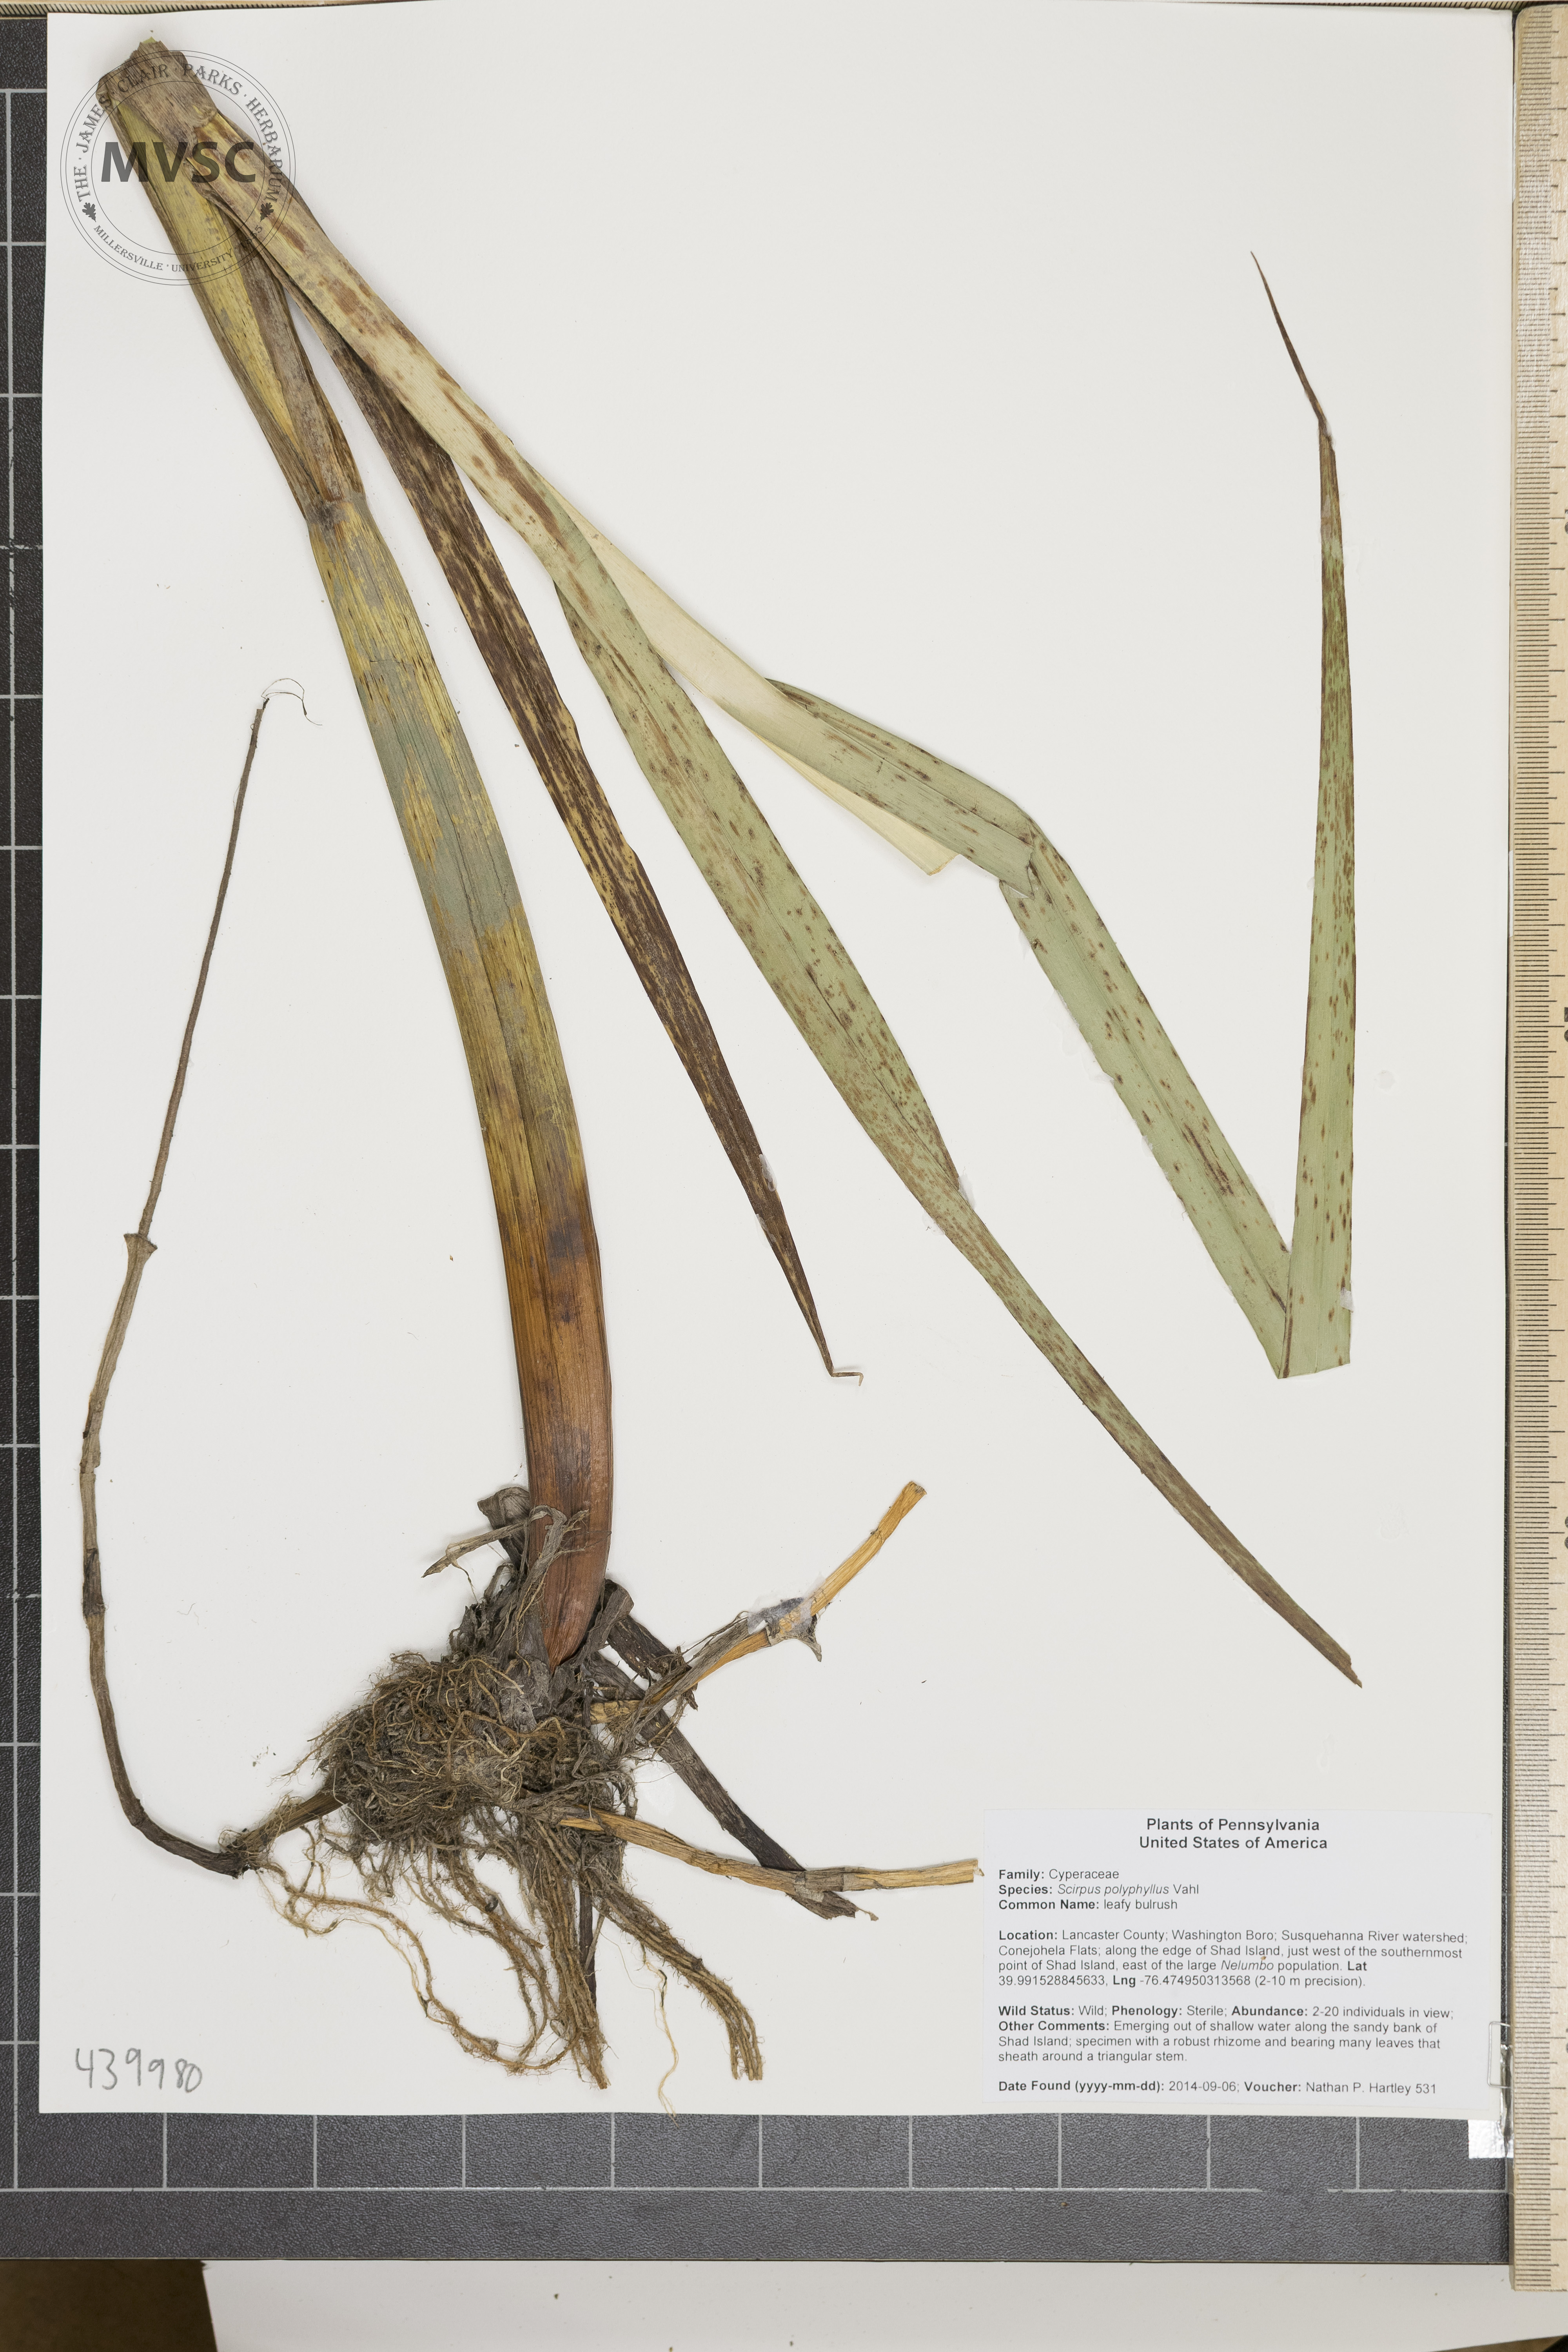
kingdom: Plantae
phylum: Tracheophyta
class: Liliopsida
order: Poales
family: Cyperaceae
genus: Scirpus
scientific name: Scirpus polyphyllus
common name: Leafy bulrush
